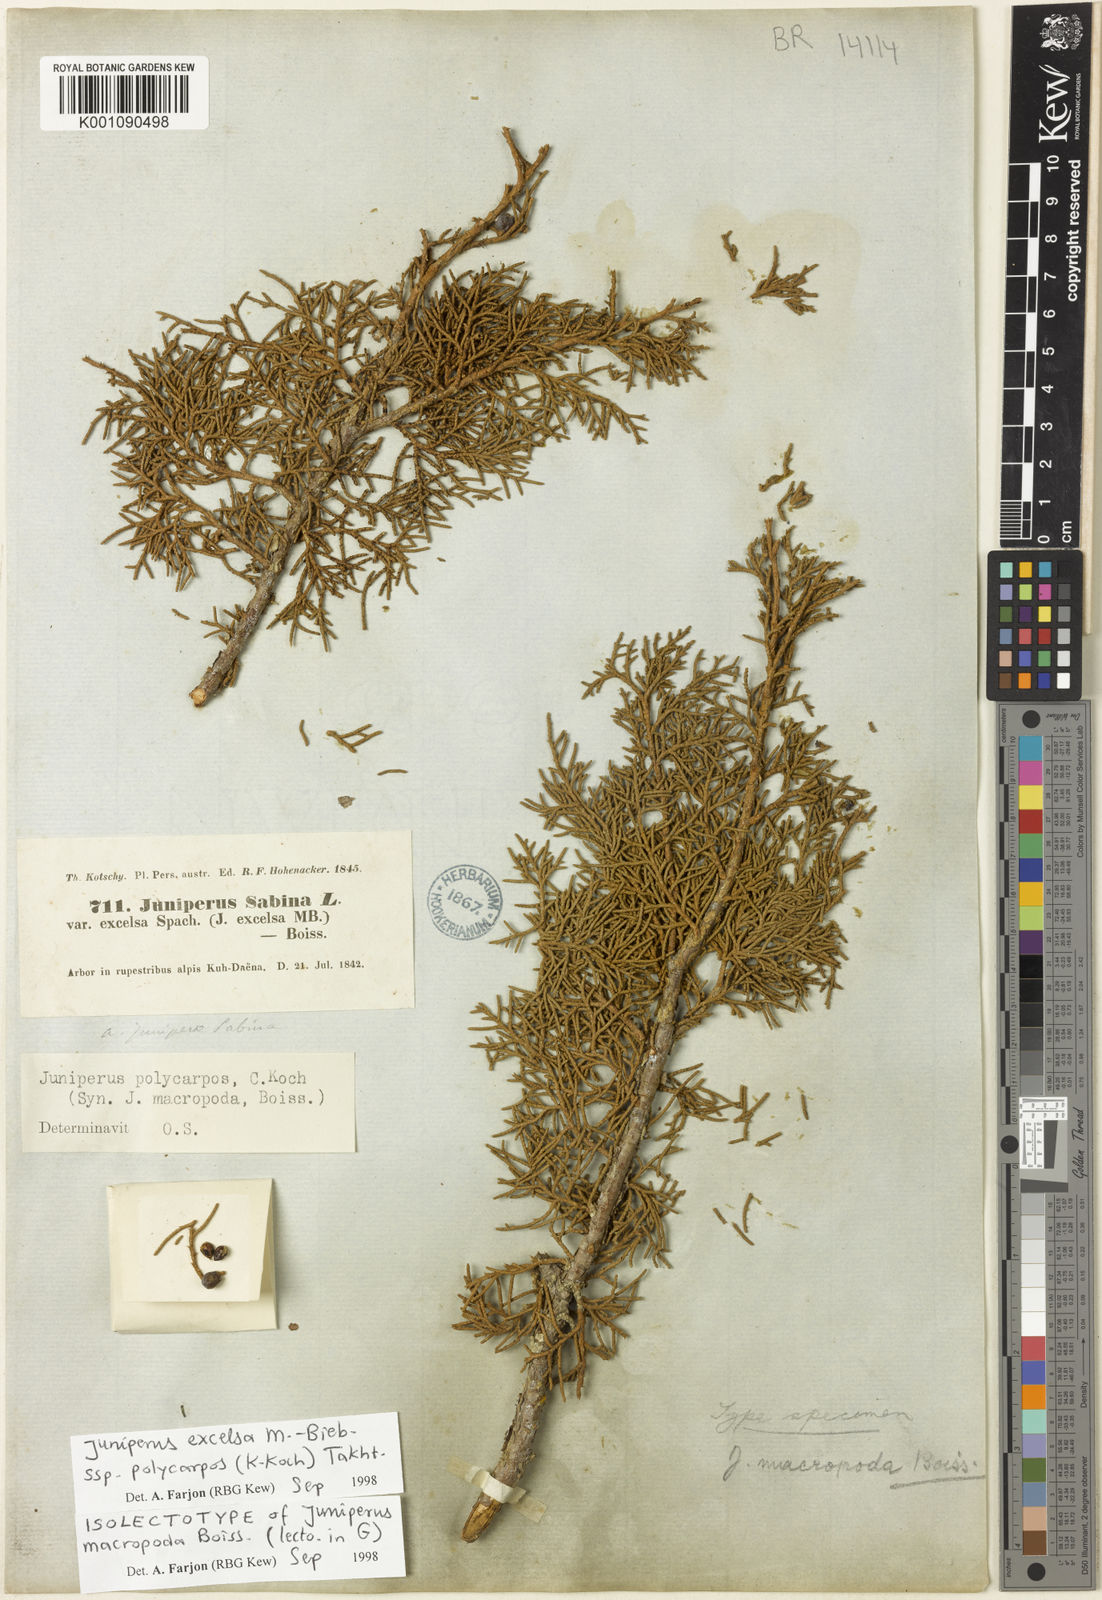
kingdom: Plantae
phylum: Tracheophyta
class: Pinopsida
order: Pinales
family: Cupressaceae
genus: Juniperus
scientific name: Juniperus excelsa
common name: Crimean juniper
